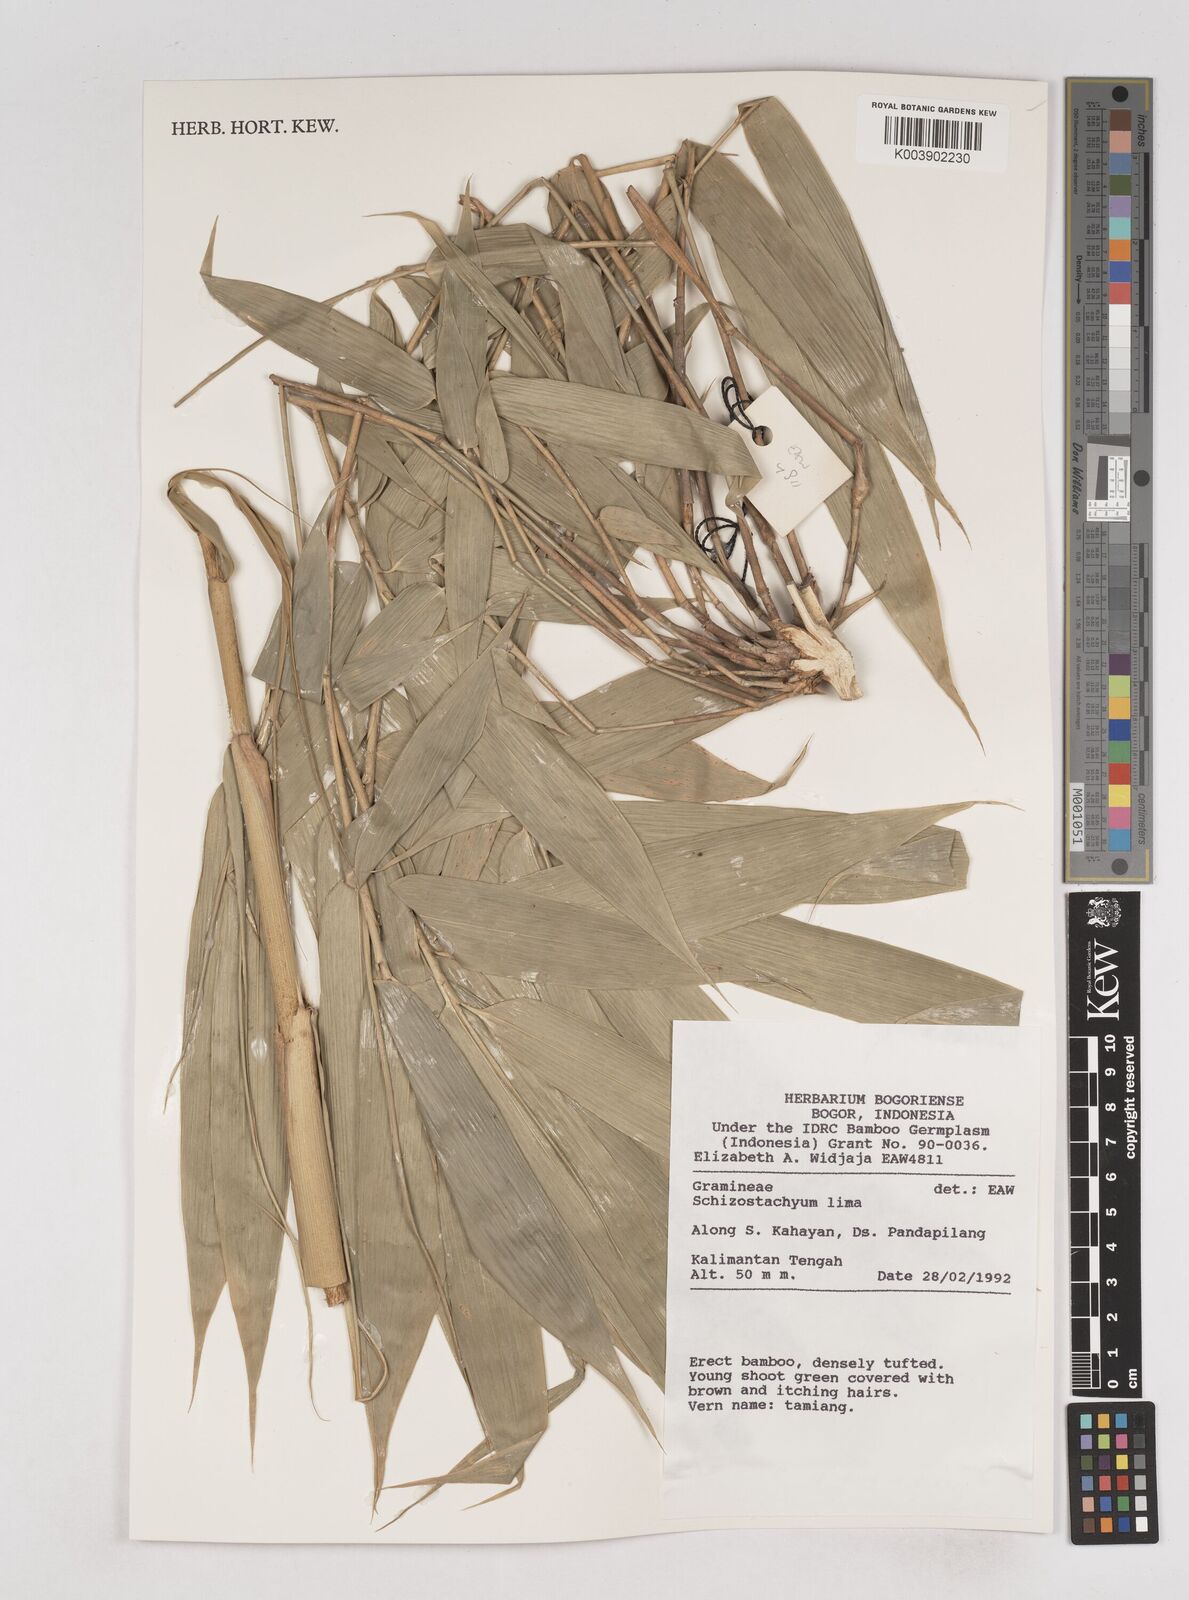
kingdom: Plantae
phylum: Tracheophyta
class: Liliopsida
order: Poales
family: Poaceae
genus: Schizostachyum
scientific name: Schizostachyum lima
